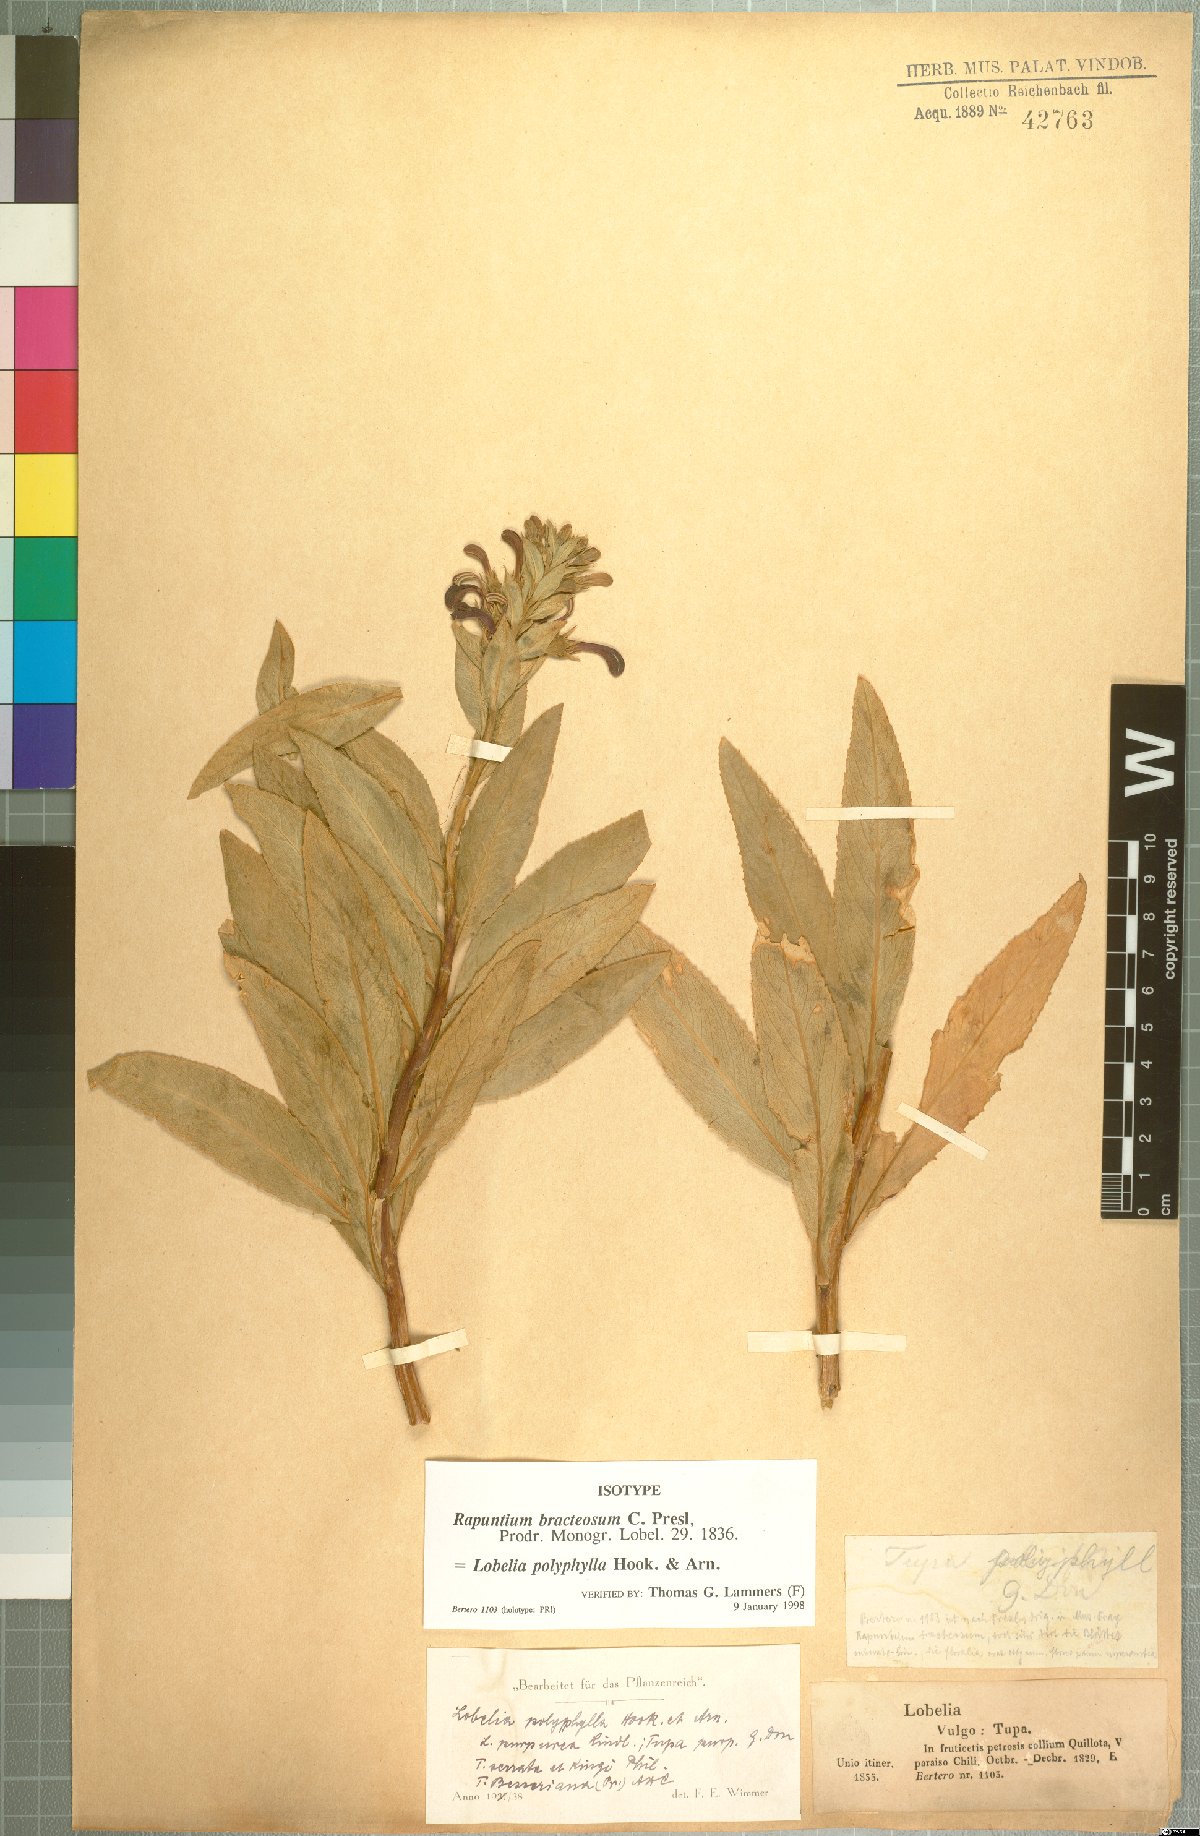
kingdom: Plantae
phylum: Tracheophyta
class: Magnoliopsida
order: Asterales
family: Campanulaceae
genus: Lobelia
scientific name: Lobelia polyphylla
